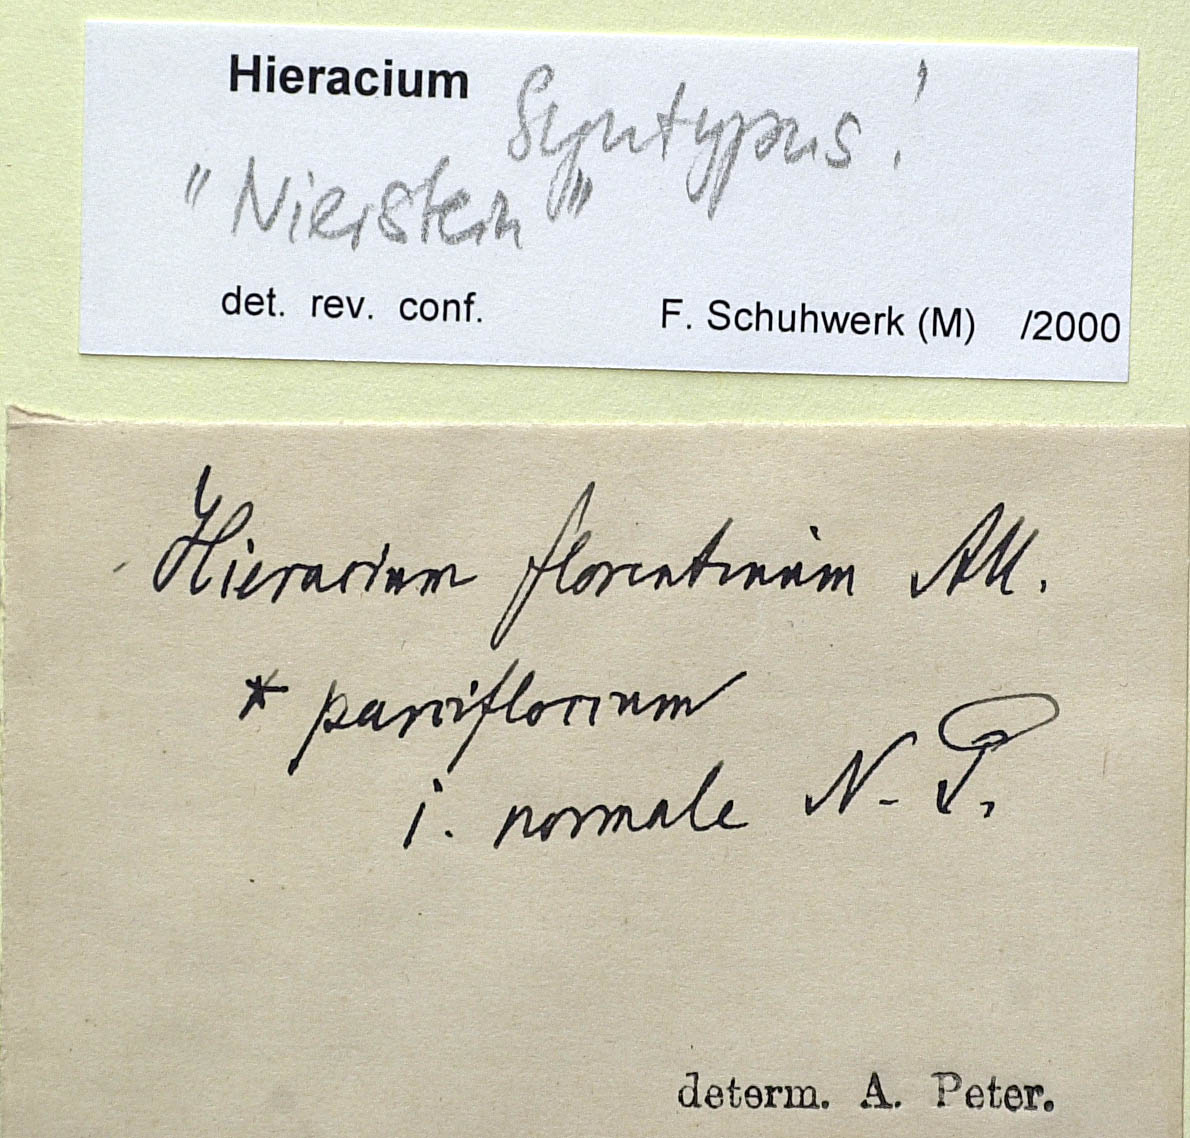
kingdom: Plantae
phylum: Tracheophyta
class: Magnoliopsida
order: Asterales
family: Asteraceae
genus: Pilosella
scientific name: Pilosella piloselloides
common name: Glaucous king-devil
